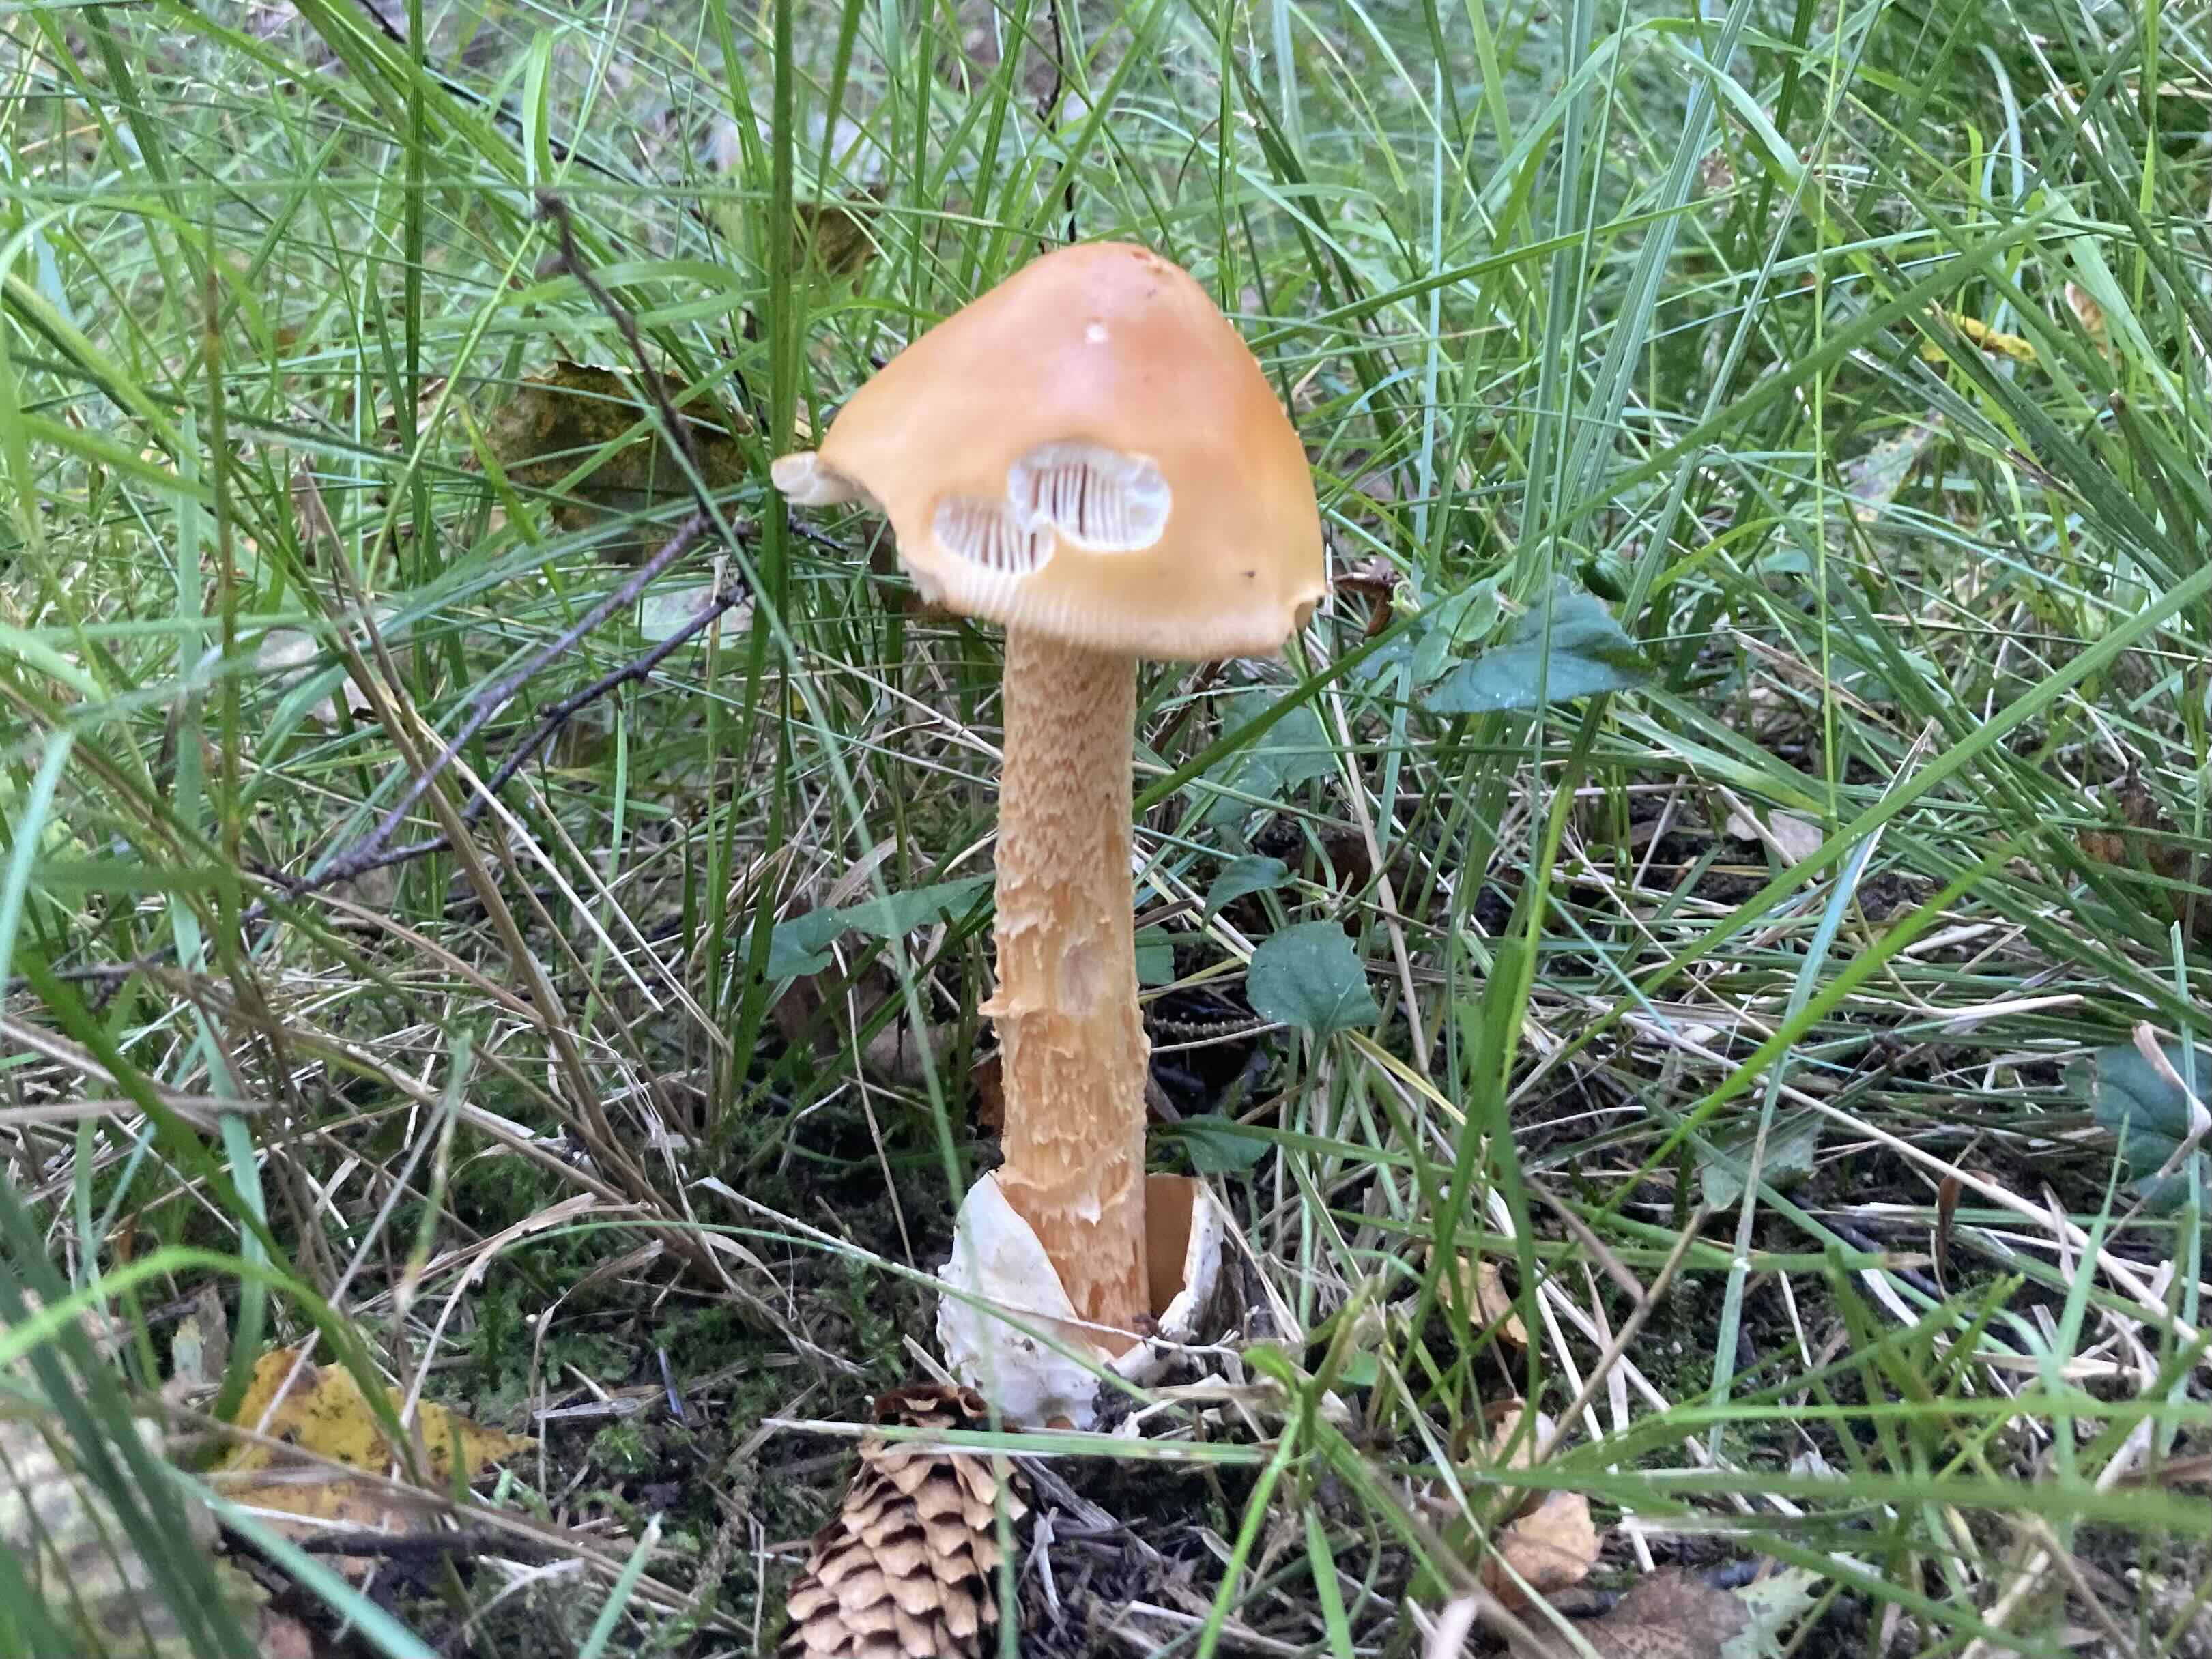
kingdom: Fungi
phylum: Basidiomycota
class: Agaricomycetes
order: Agaricales
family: Amanitaceae
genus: Amanita
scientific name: Amanita crocea
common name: gylden kam-fluesvamp
